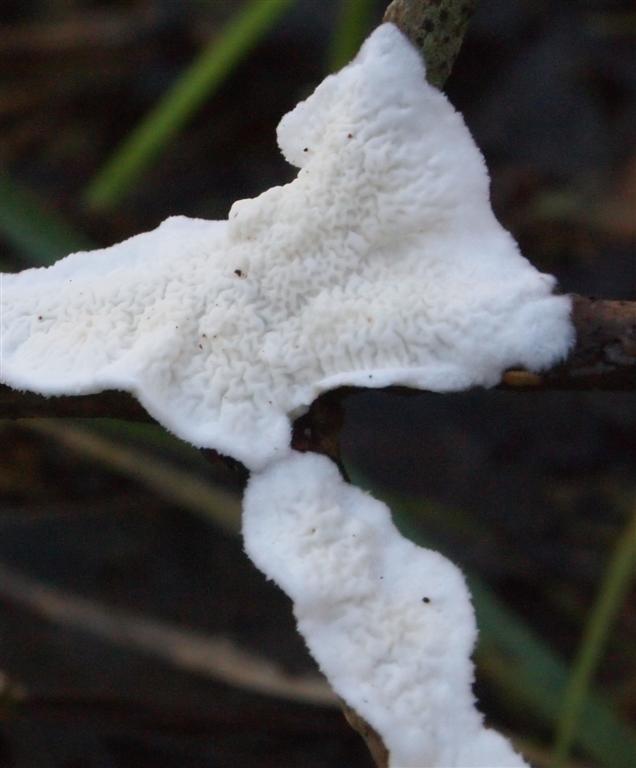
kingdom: Fungi
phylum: Basidiomycota
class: Agaricomycetes
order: Polyporales
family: Irpicaceae
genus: Byssomerulius
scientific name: Byssomerulius corium
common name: læder-åresvamp
